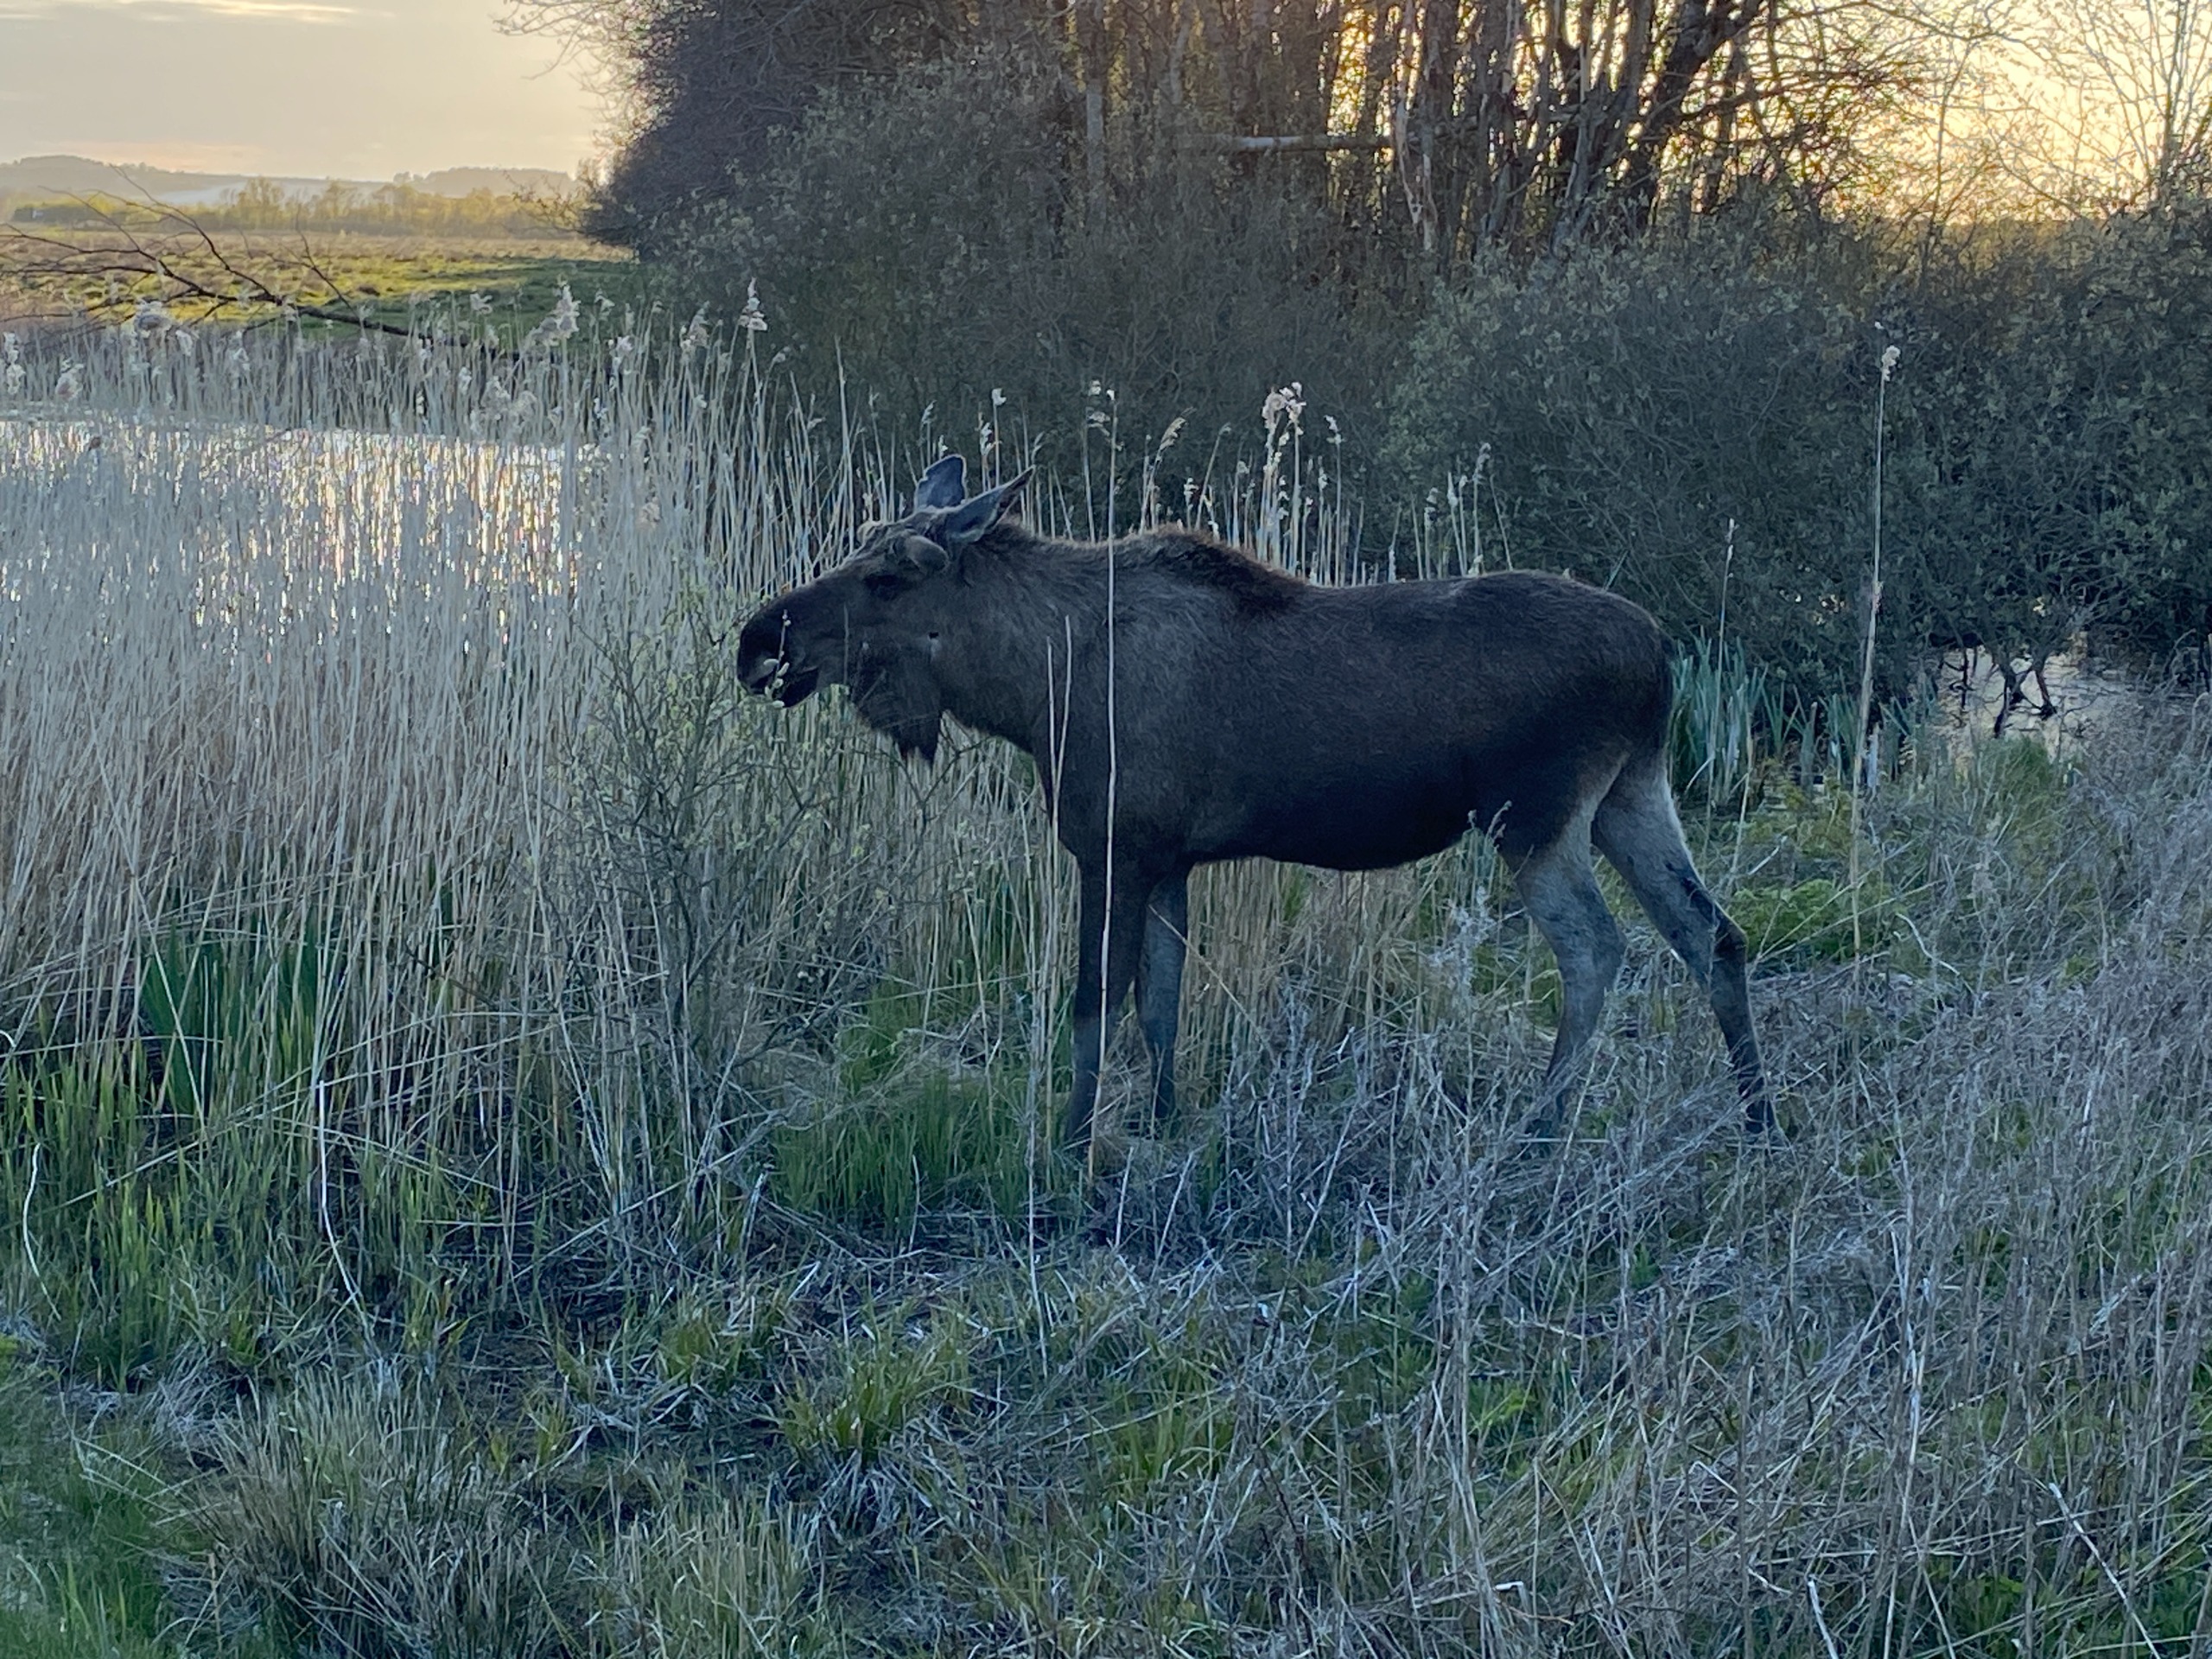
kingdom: Animalia
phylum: Chordata
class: Mammalia
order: Artiodactyla
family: Cervidae
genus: Alces
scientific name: Alces alces
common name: Elg
